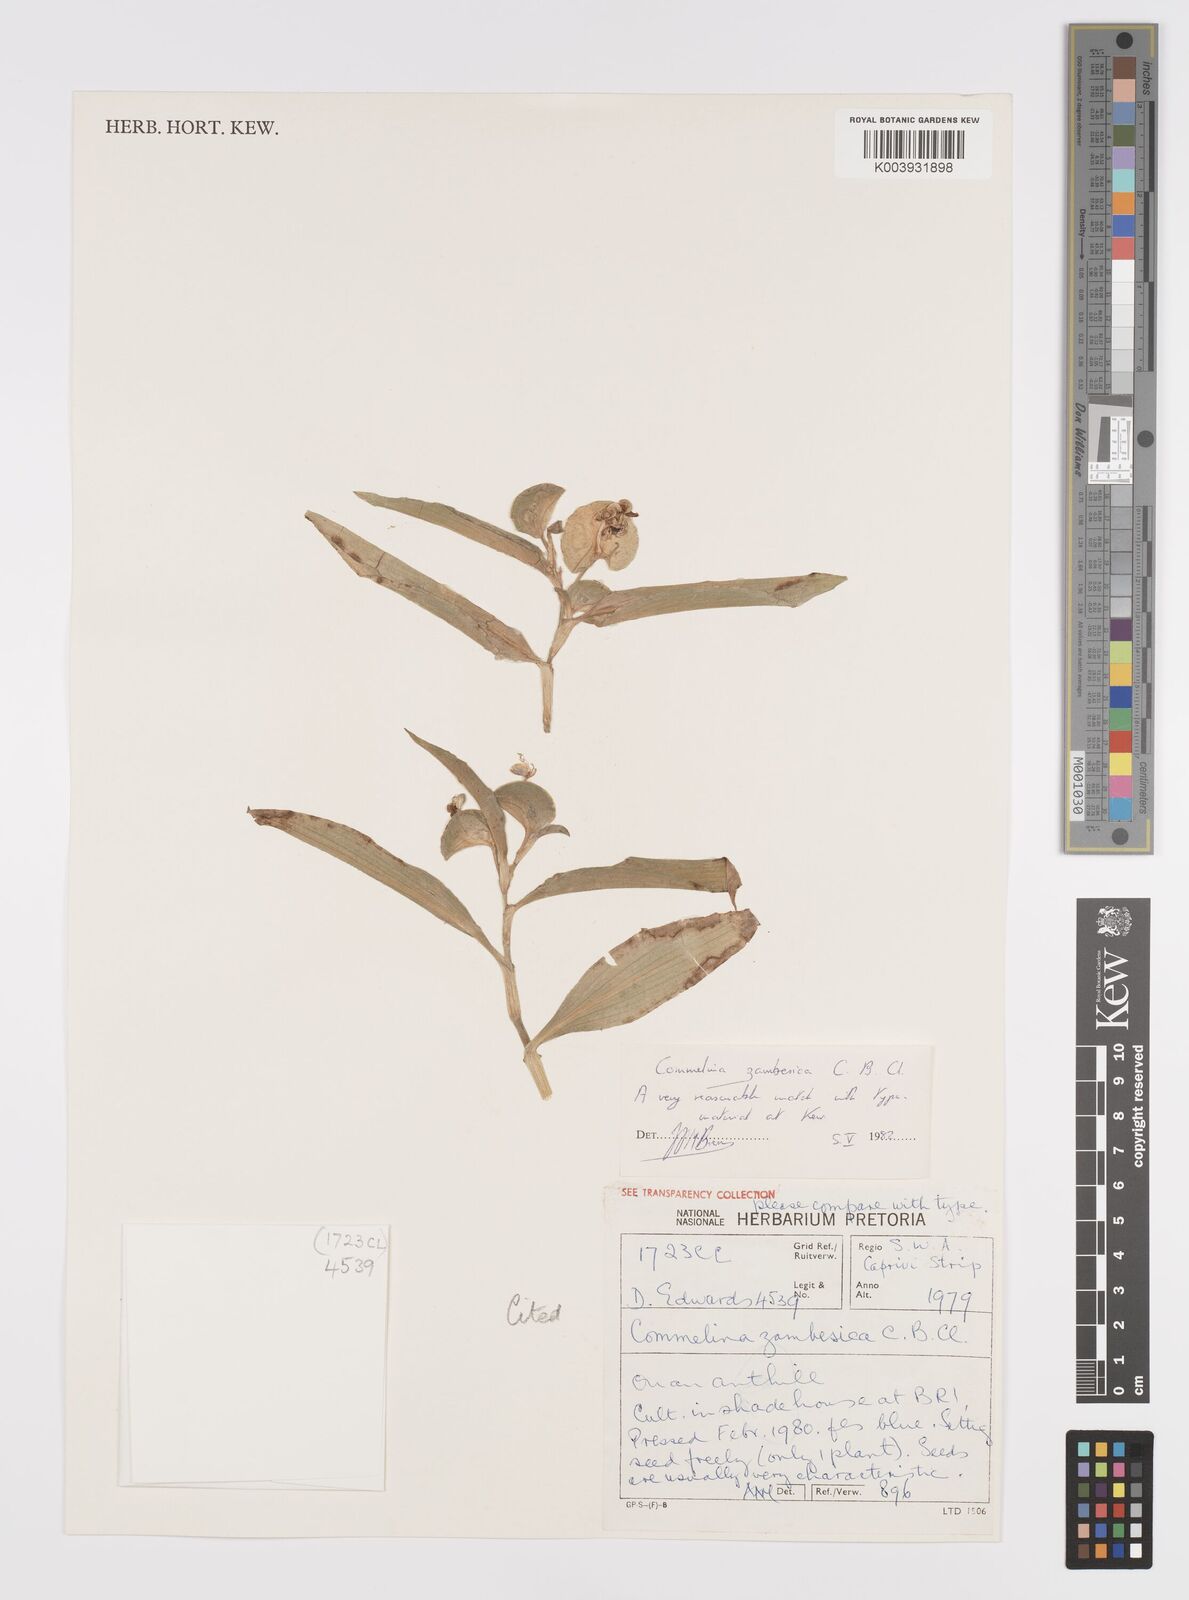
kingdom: Plantae
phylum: Tracheophyta
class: Liliopsida
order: Commelinales
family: Commelinaceae
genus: Commelina
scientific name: Commelina zambesica
